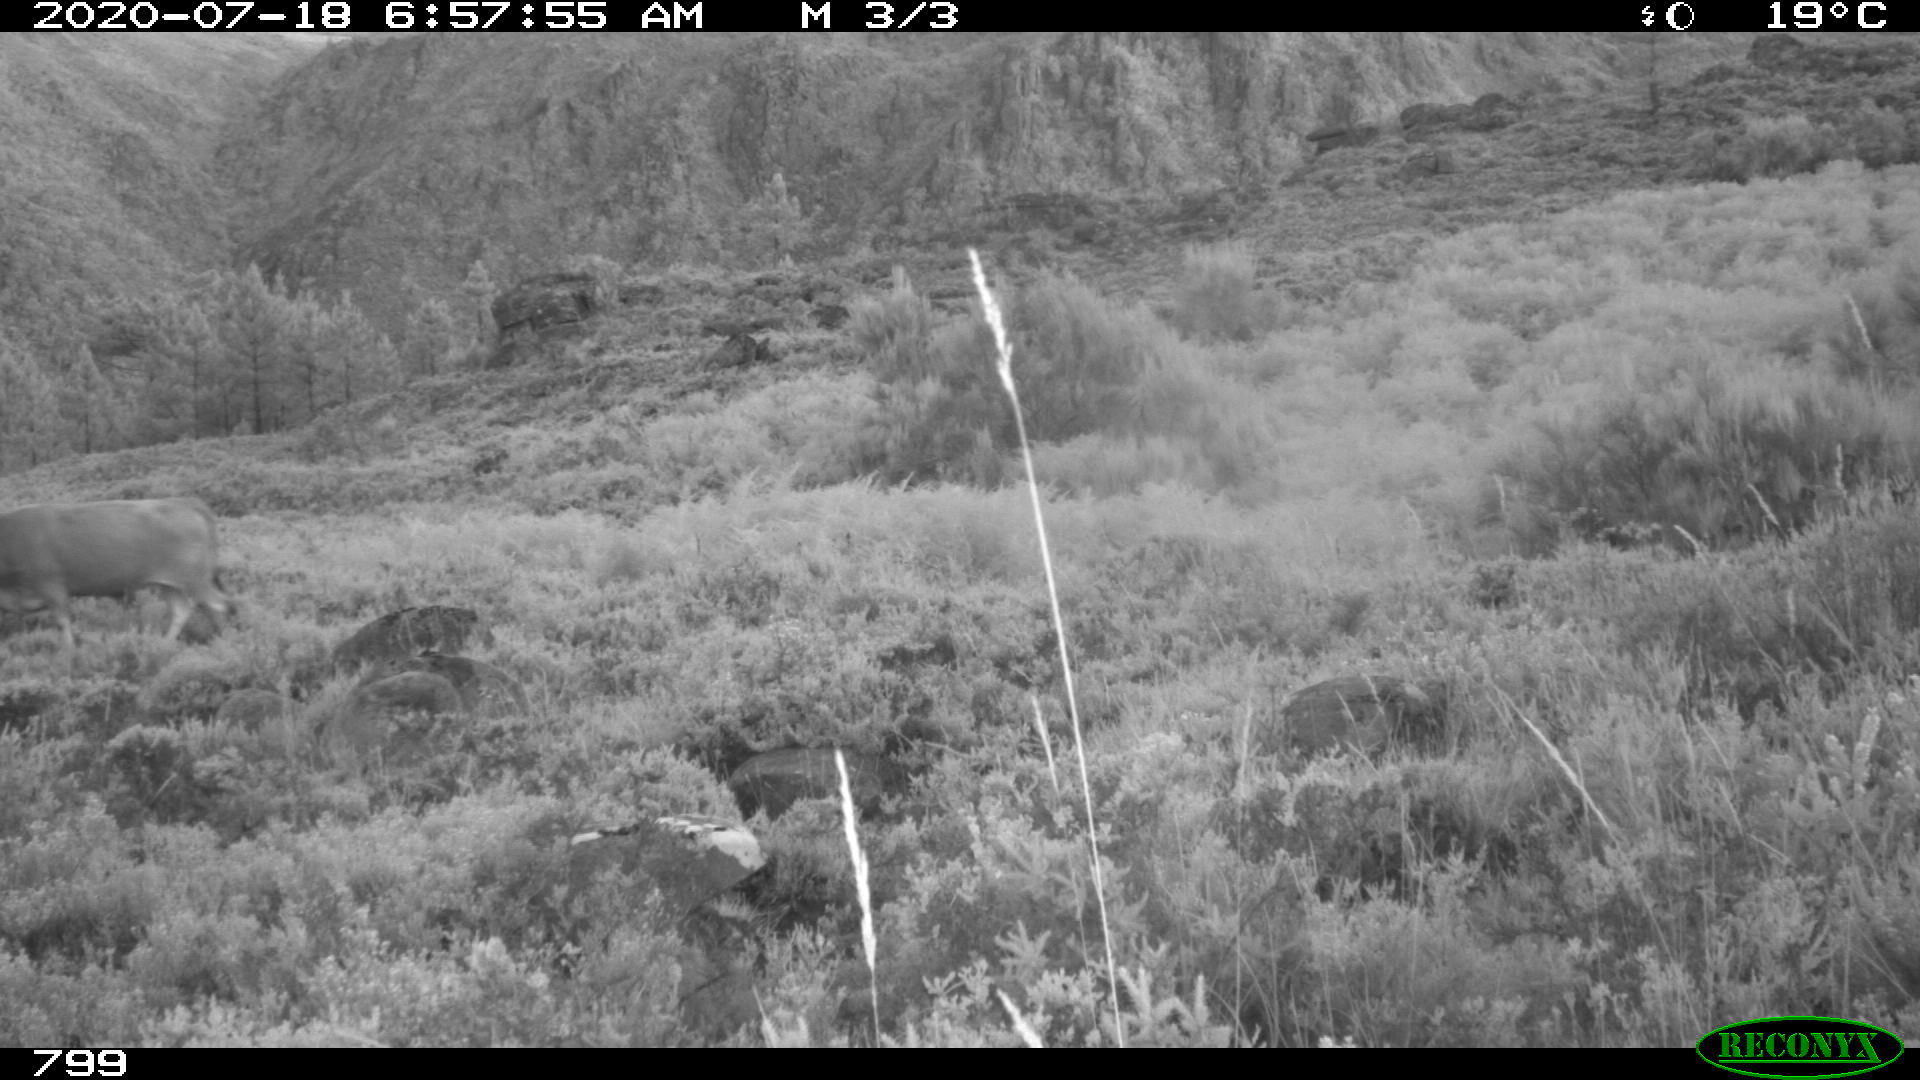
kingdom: Animalia
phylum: Chordata
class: Mammalia
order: Artiodactyla
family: Bovidae
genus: Bos
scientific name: Bos taurus
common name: Domesticated cattle
